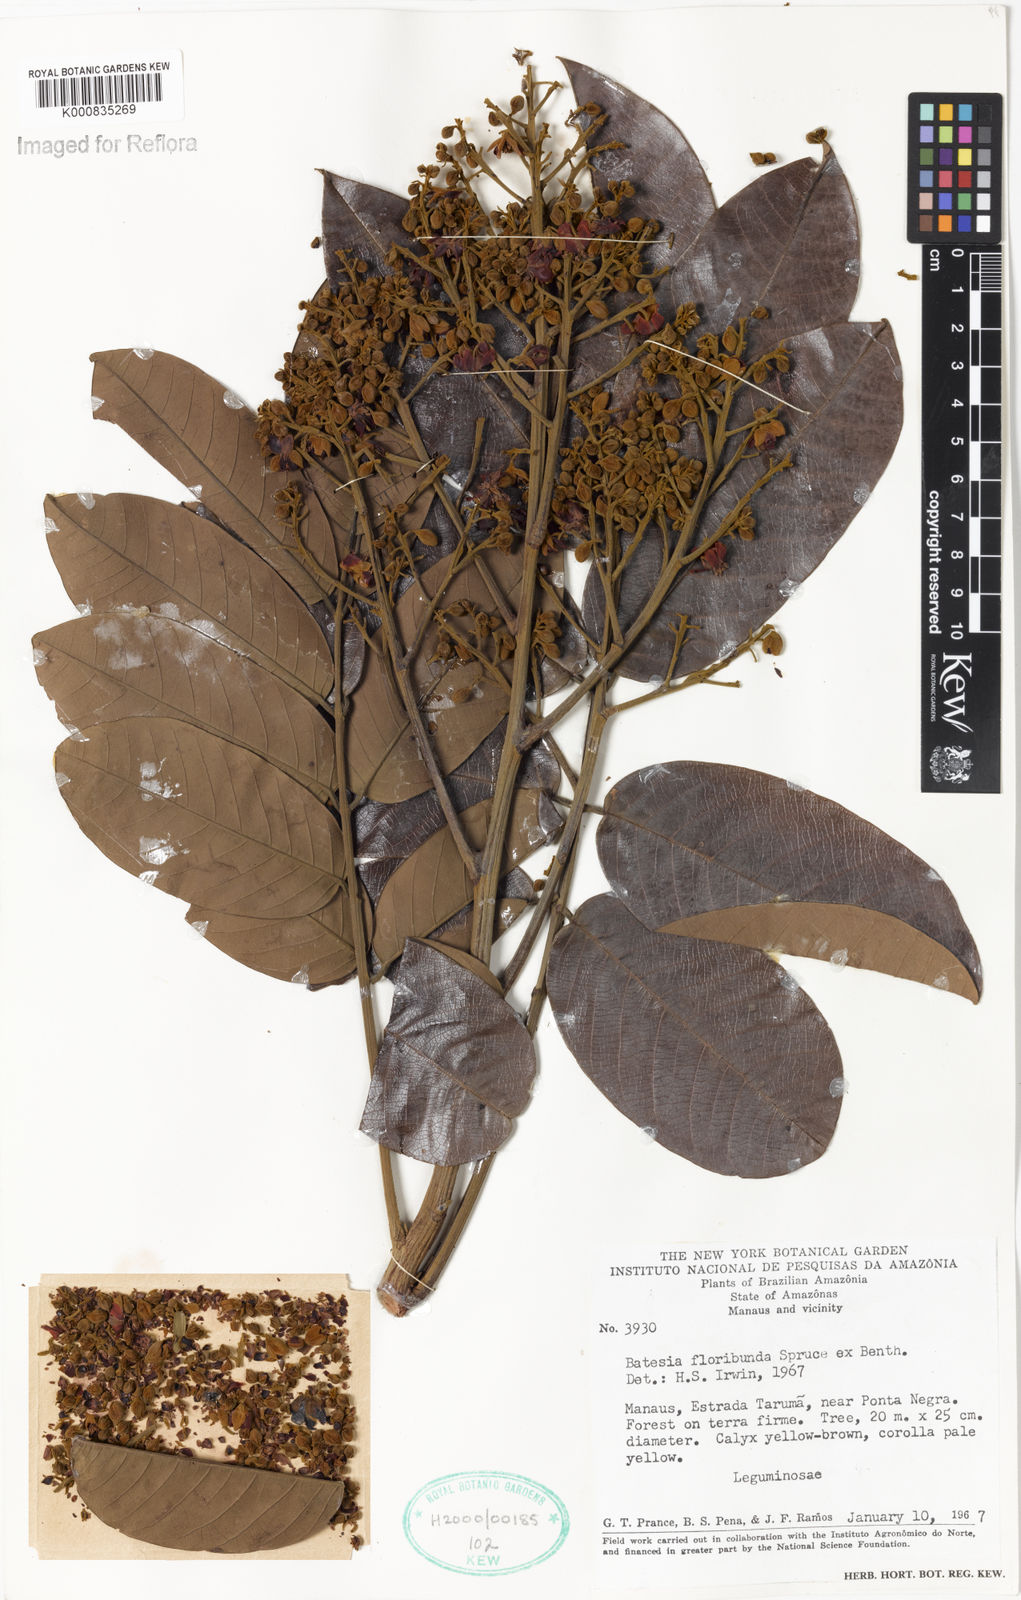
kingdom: Plantae
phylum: Tracheophyta
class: Magnoliopsida
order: Fabales
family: Fabaceae
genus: Batesia
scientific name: Batesia floribunda
